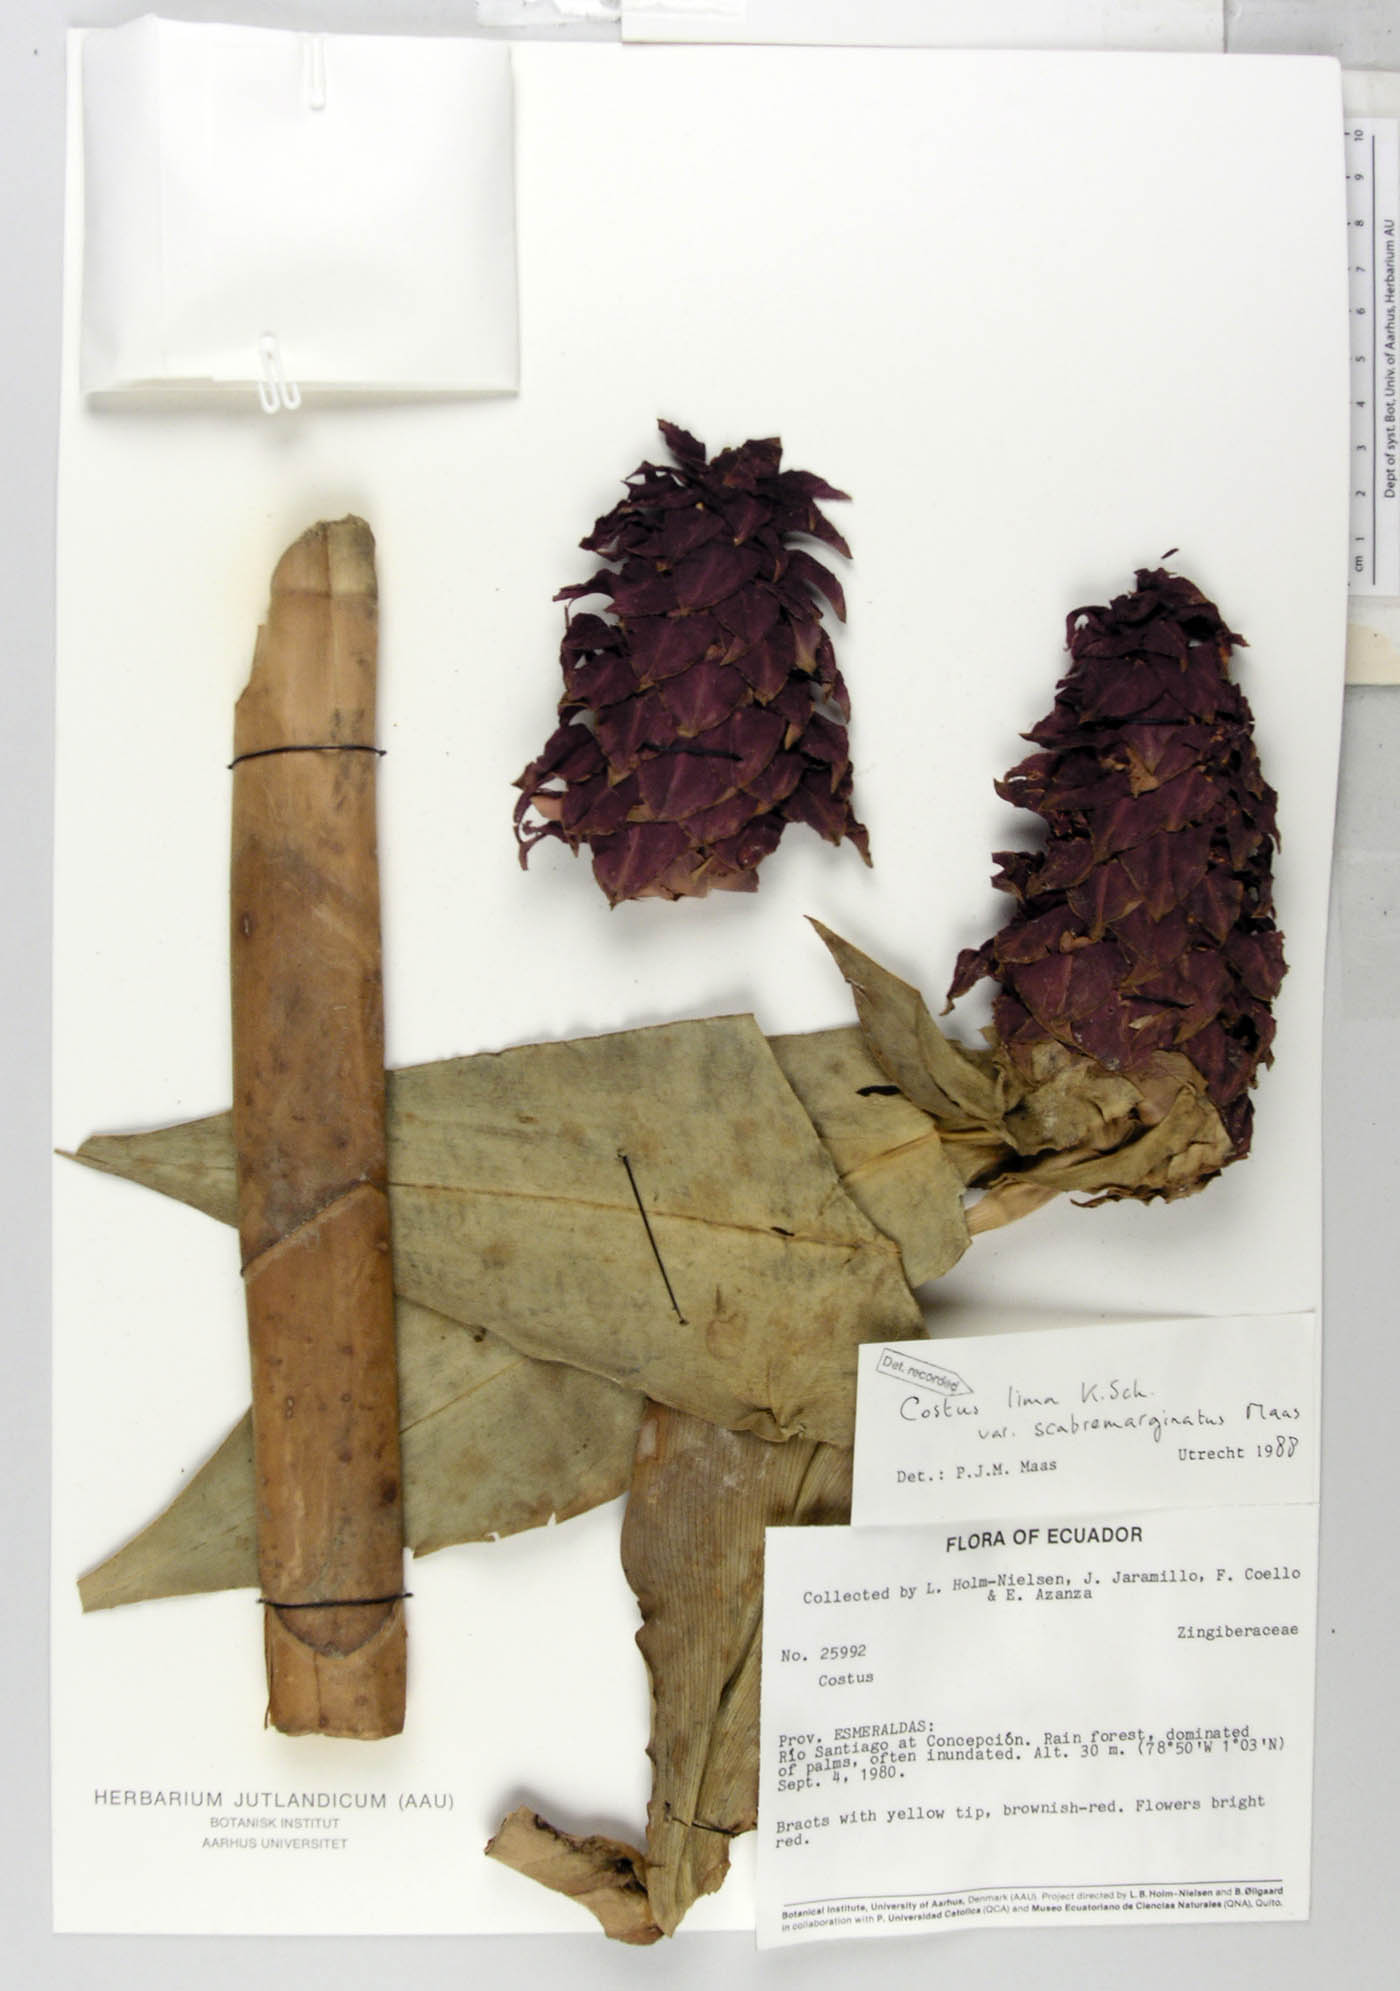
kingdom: Plantae
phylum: Tracheophyta
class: Liliopsida
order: Zingiberales
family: Costaceae
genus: Costus
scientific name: Costus lima
